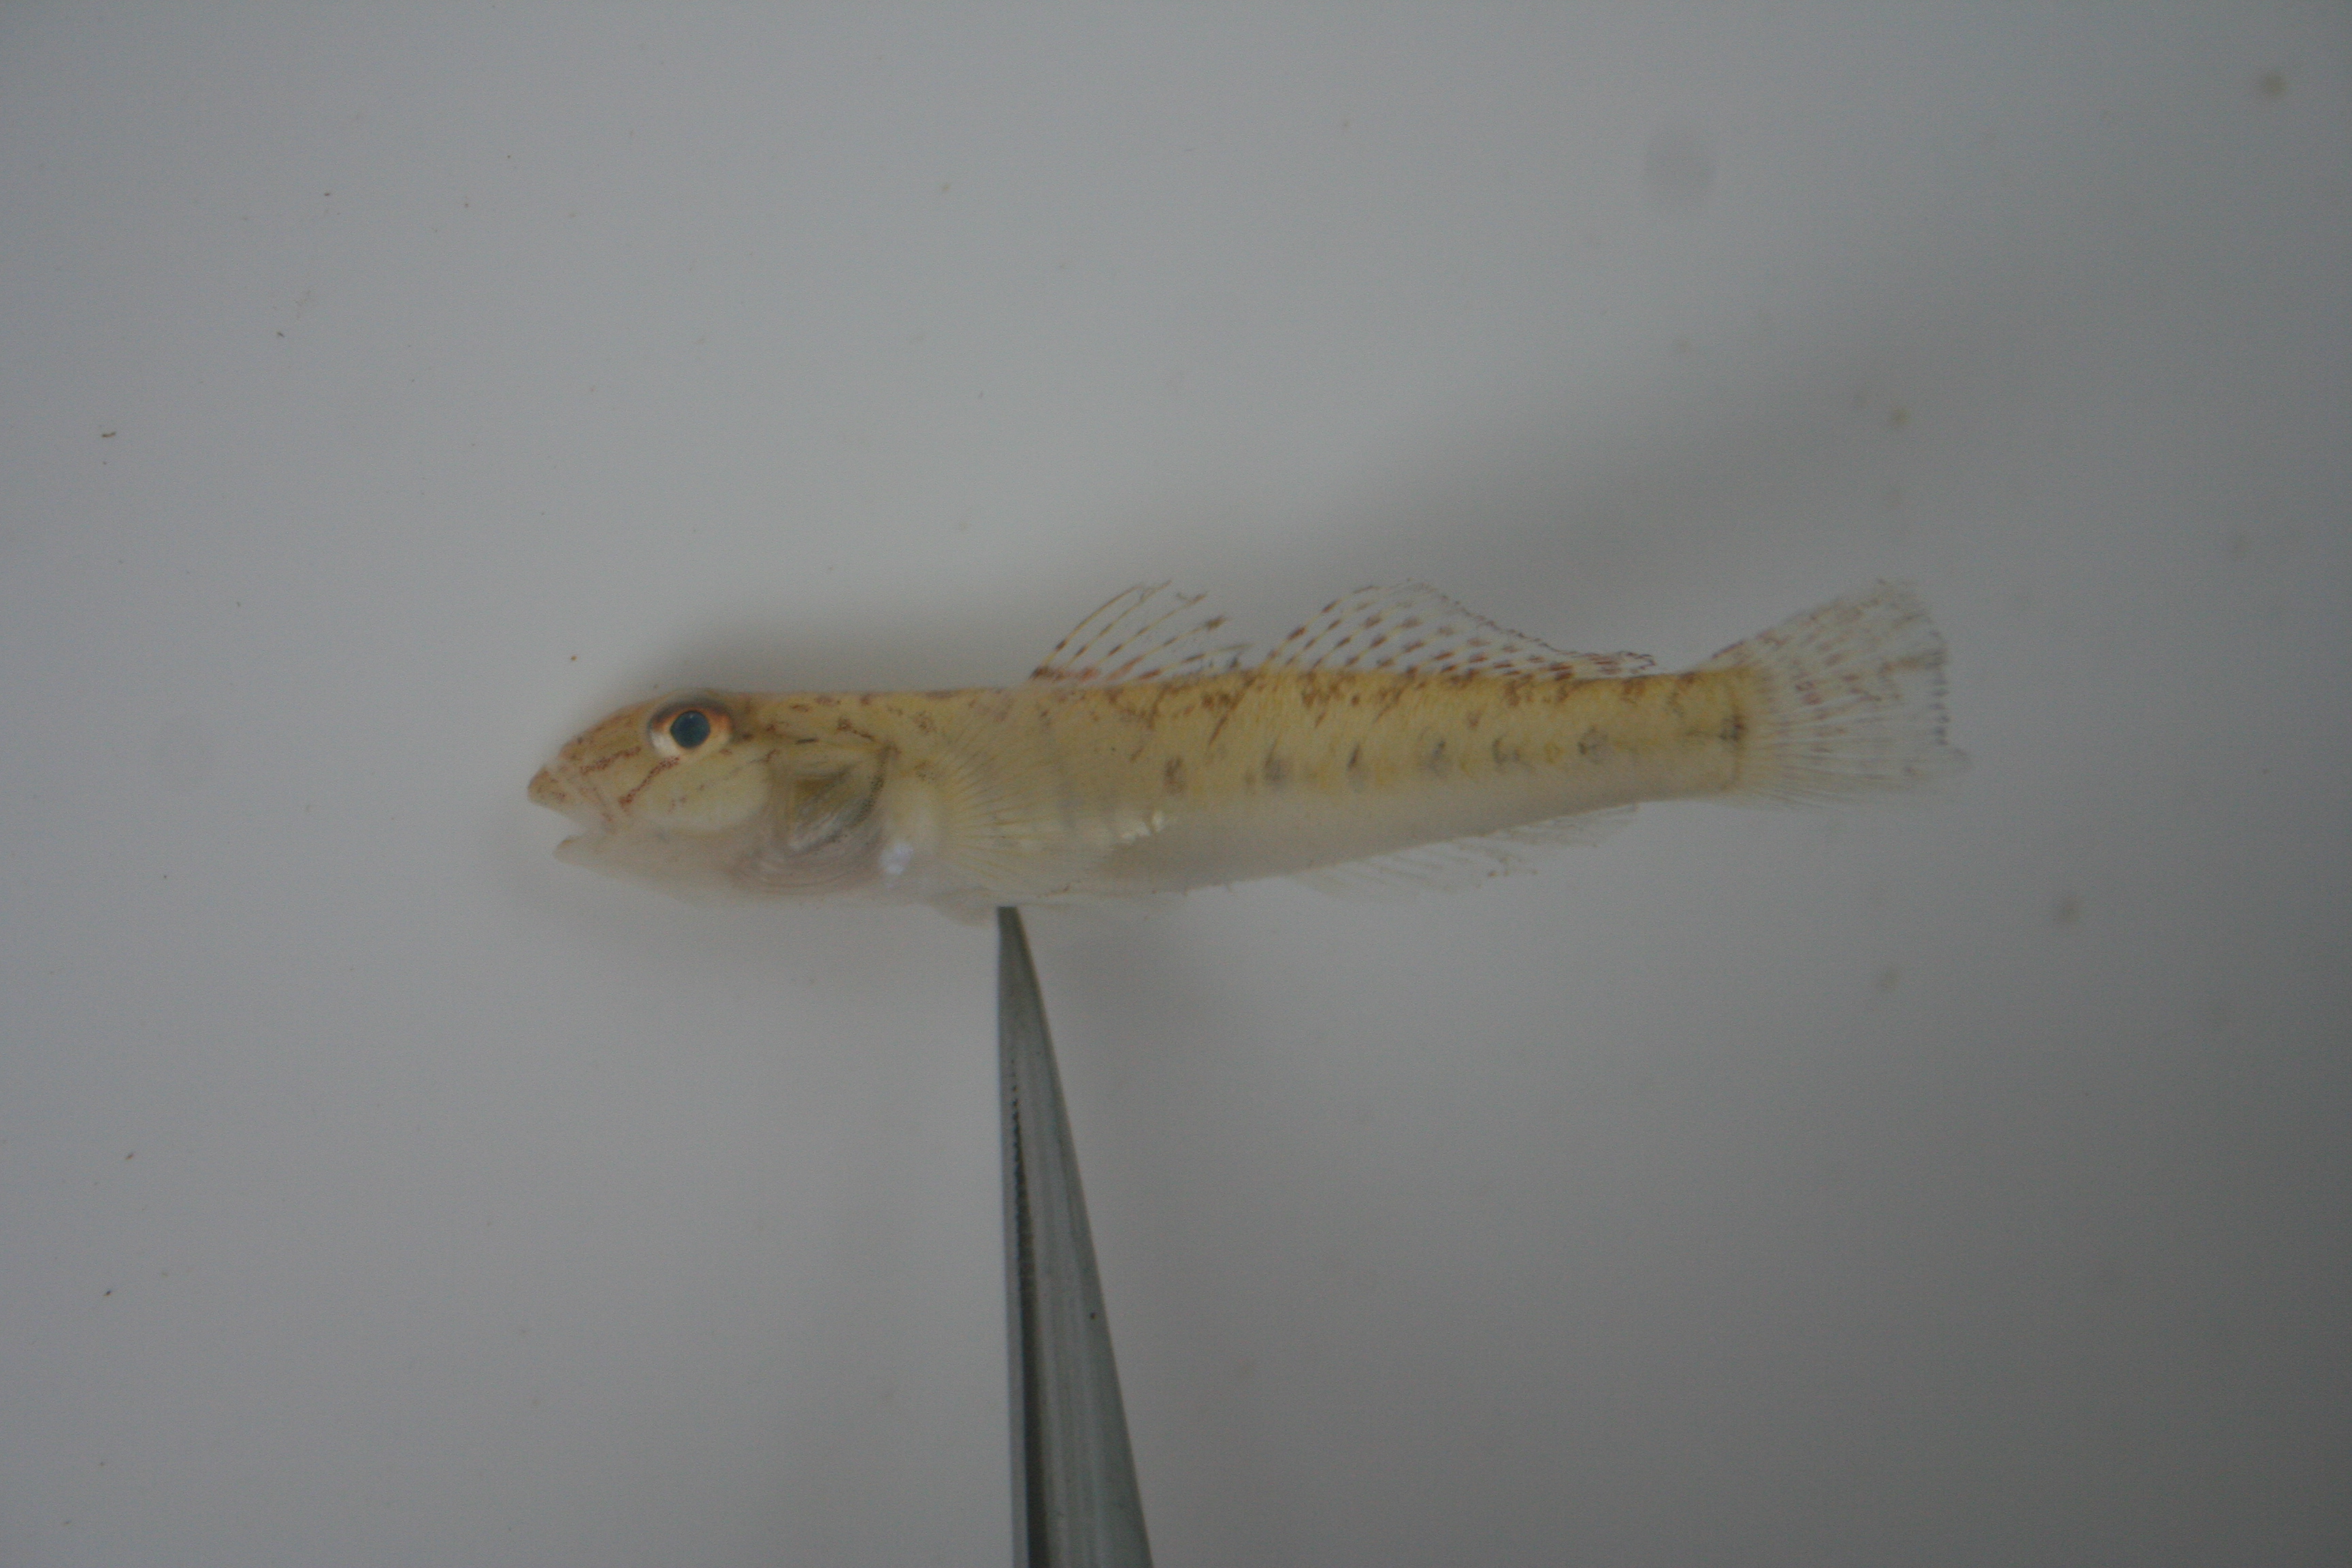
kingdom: Animalia
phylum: Chordata
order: Perciformes
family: Gobiidae
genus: Awaous
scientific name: Awaous lateristriga
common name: West african freshwater goby
